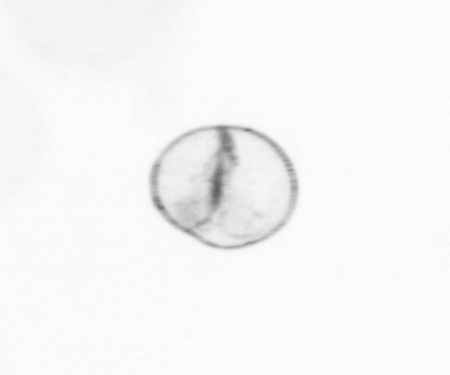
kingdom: Chromista
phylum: Myzozoa
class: Dinophyceae
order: Noctilucales
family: Noctilucaceae
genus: Noctiluca
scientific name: Noctiluca scintillans
